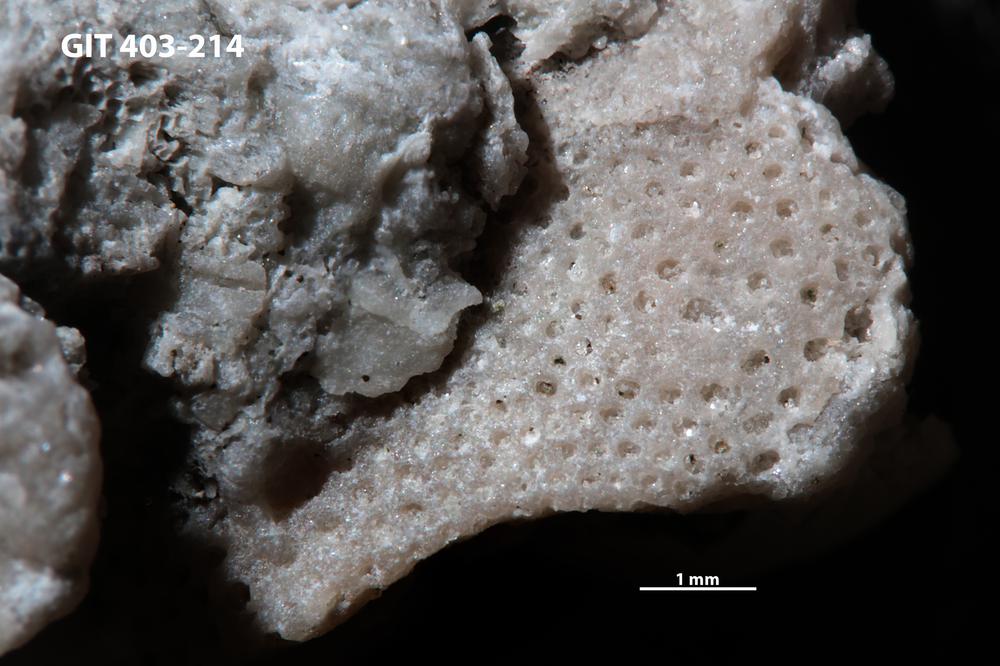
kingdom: Animalia
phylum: Bryozoa
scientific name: Bryozoa
